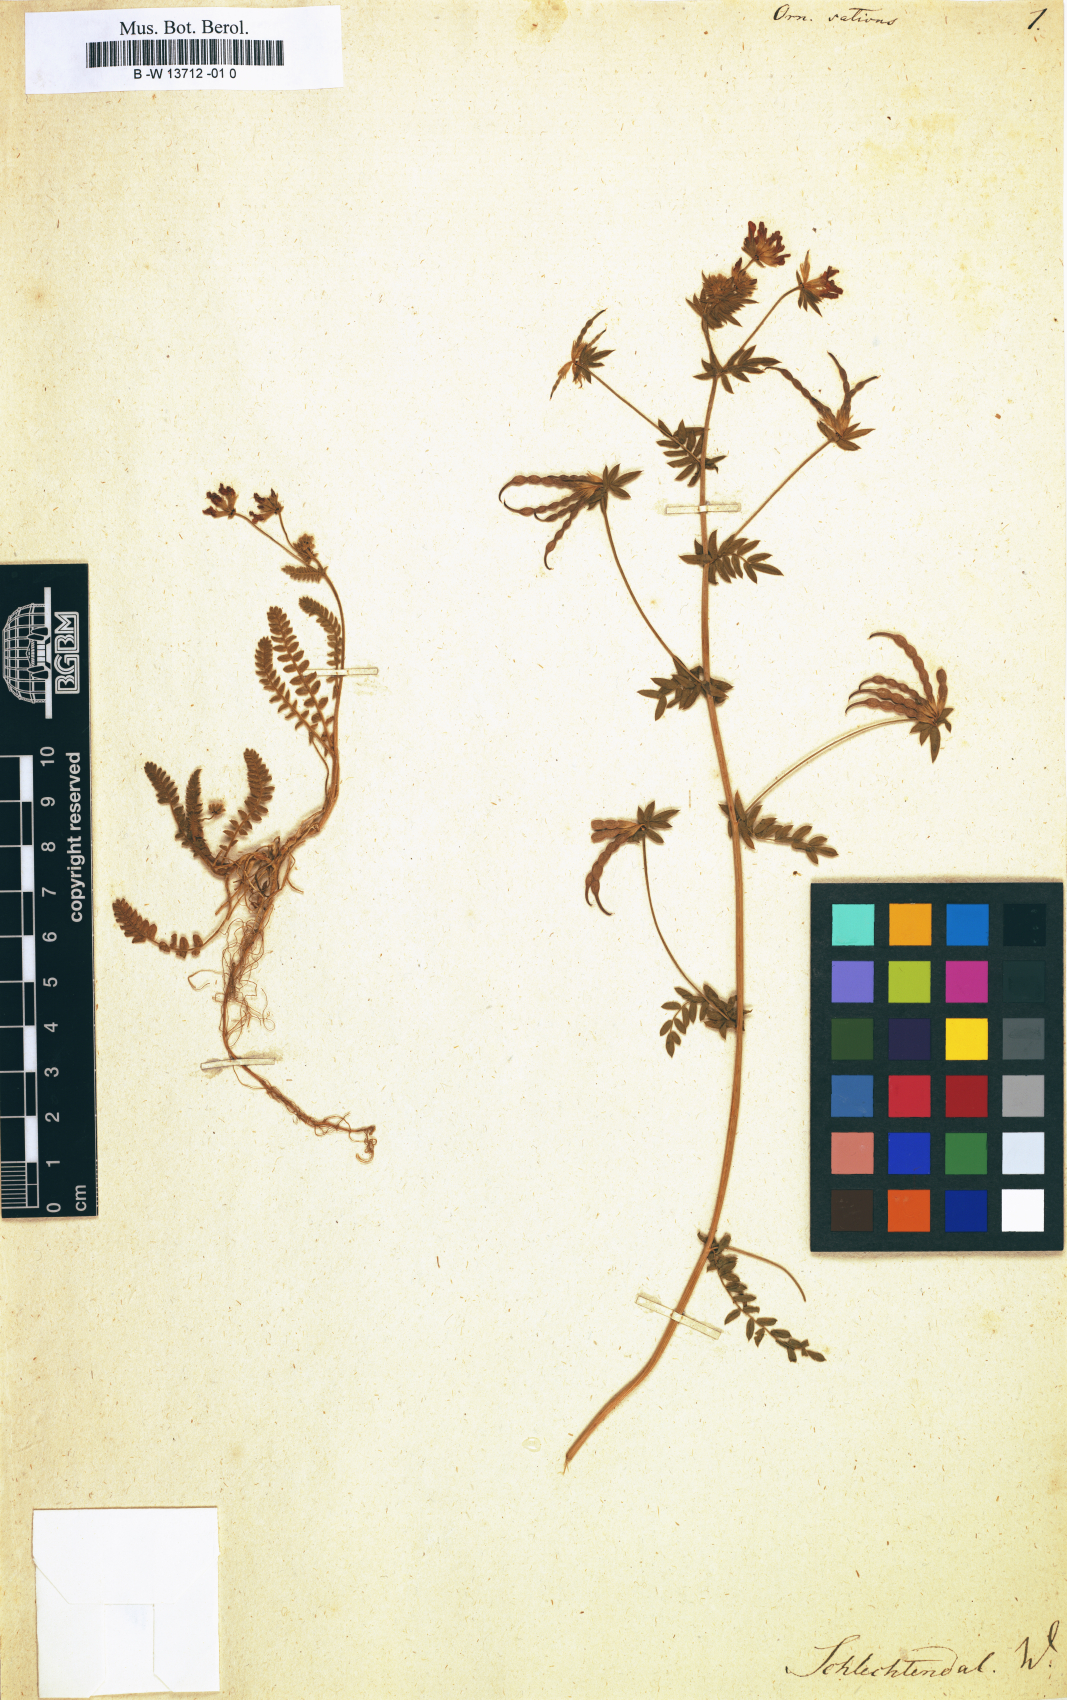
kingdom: Plantae
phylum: Tracheophyta
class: Magnoliopsida
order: Fabales
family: Fabaceae
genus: Ornithopus
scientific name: Ornithopus sativus
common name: Serradella
